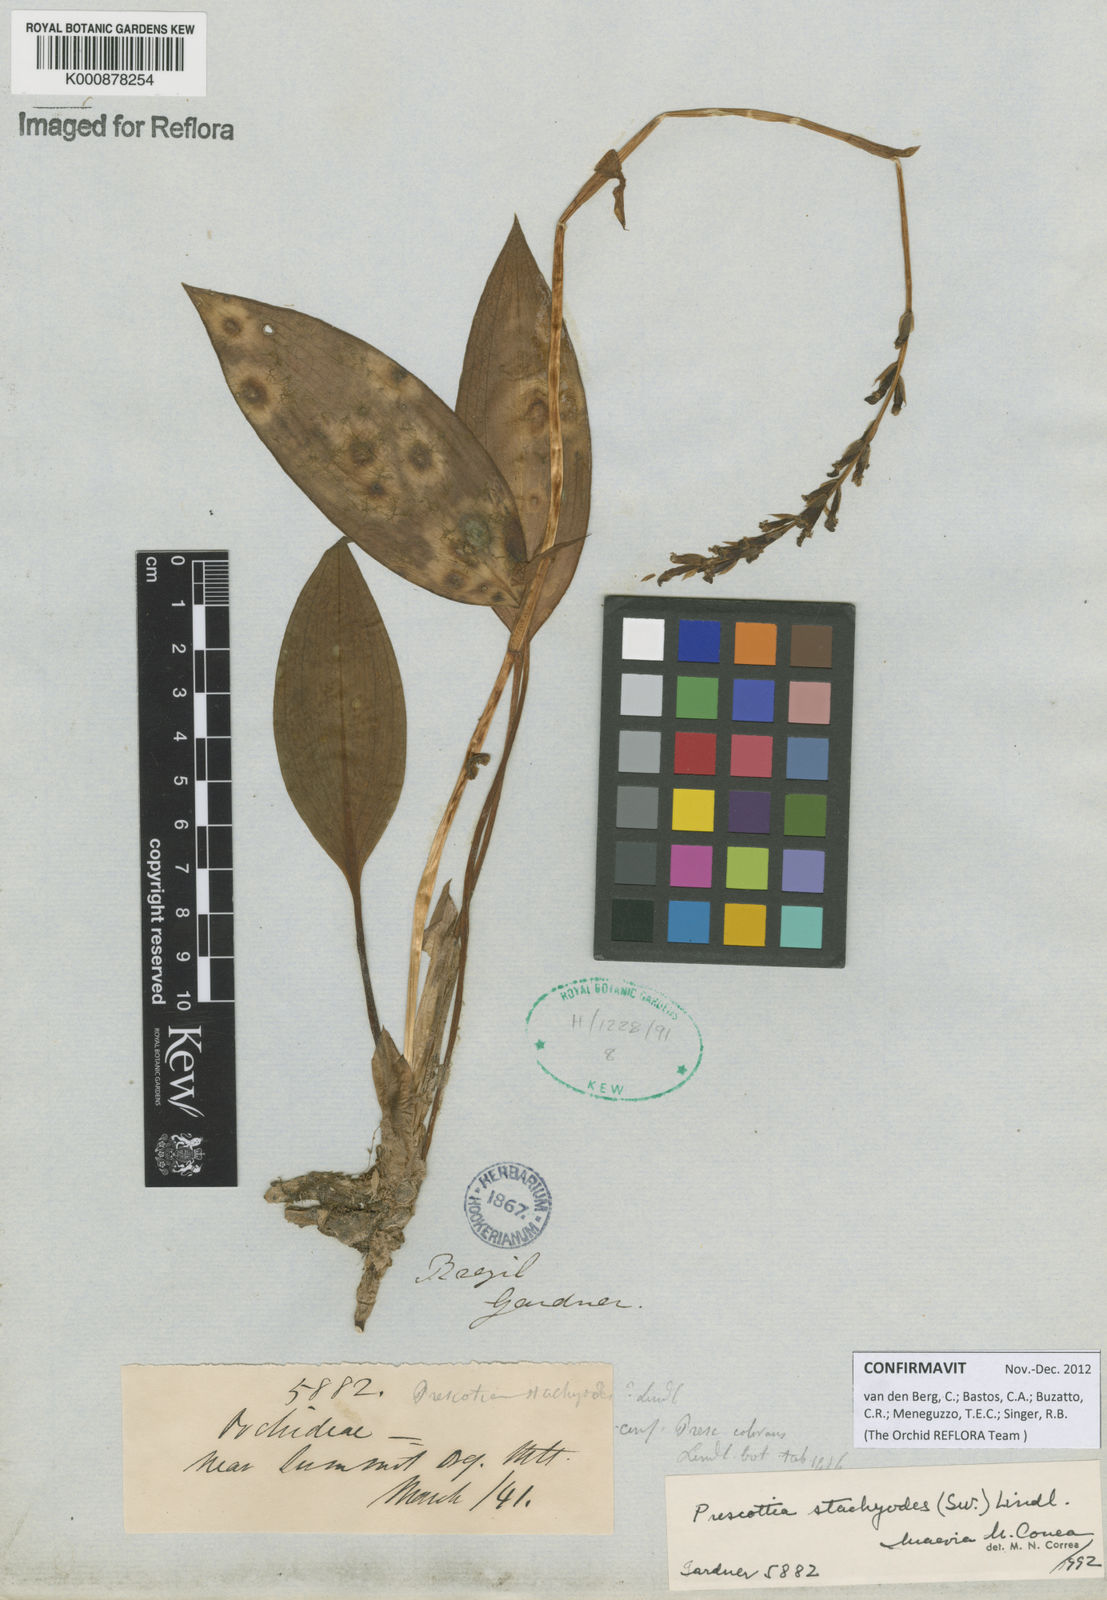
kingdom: Plantae
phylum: Tracheophyta
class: Liliopsida
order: Asparagales
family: Orchidaceae
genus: Prescottia
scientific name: Prescottia
